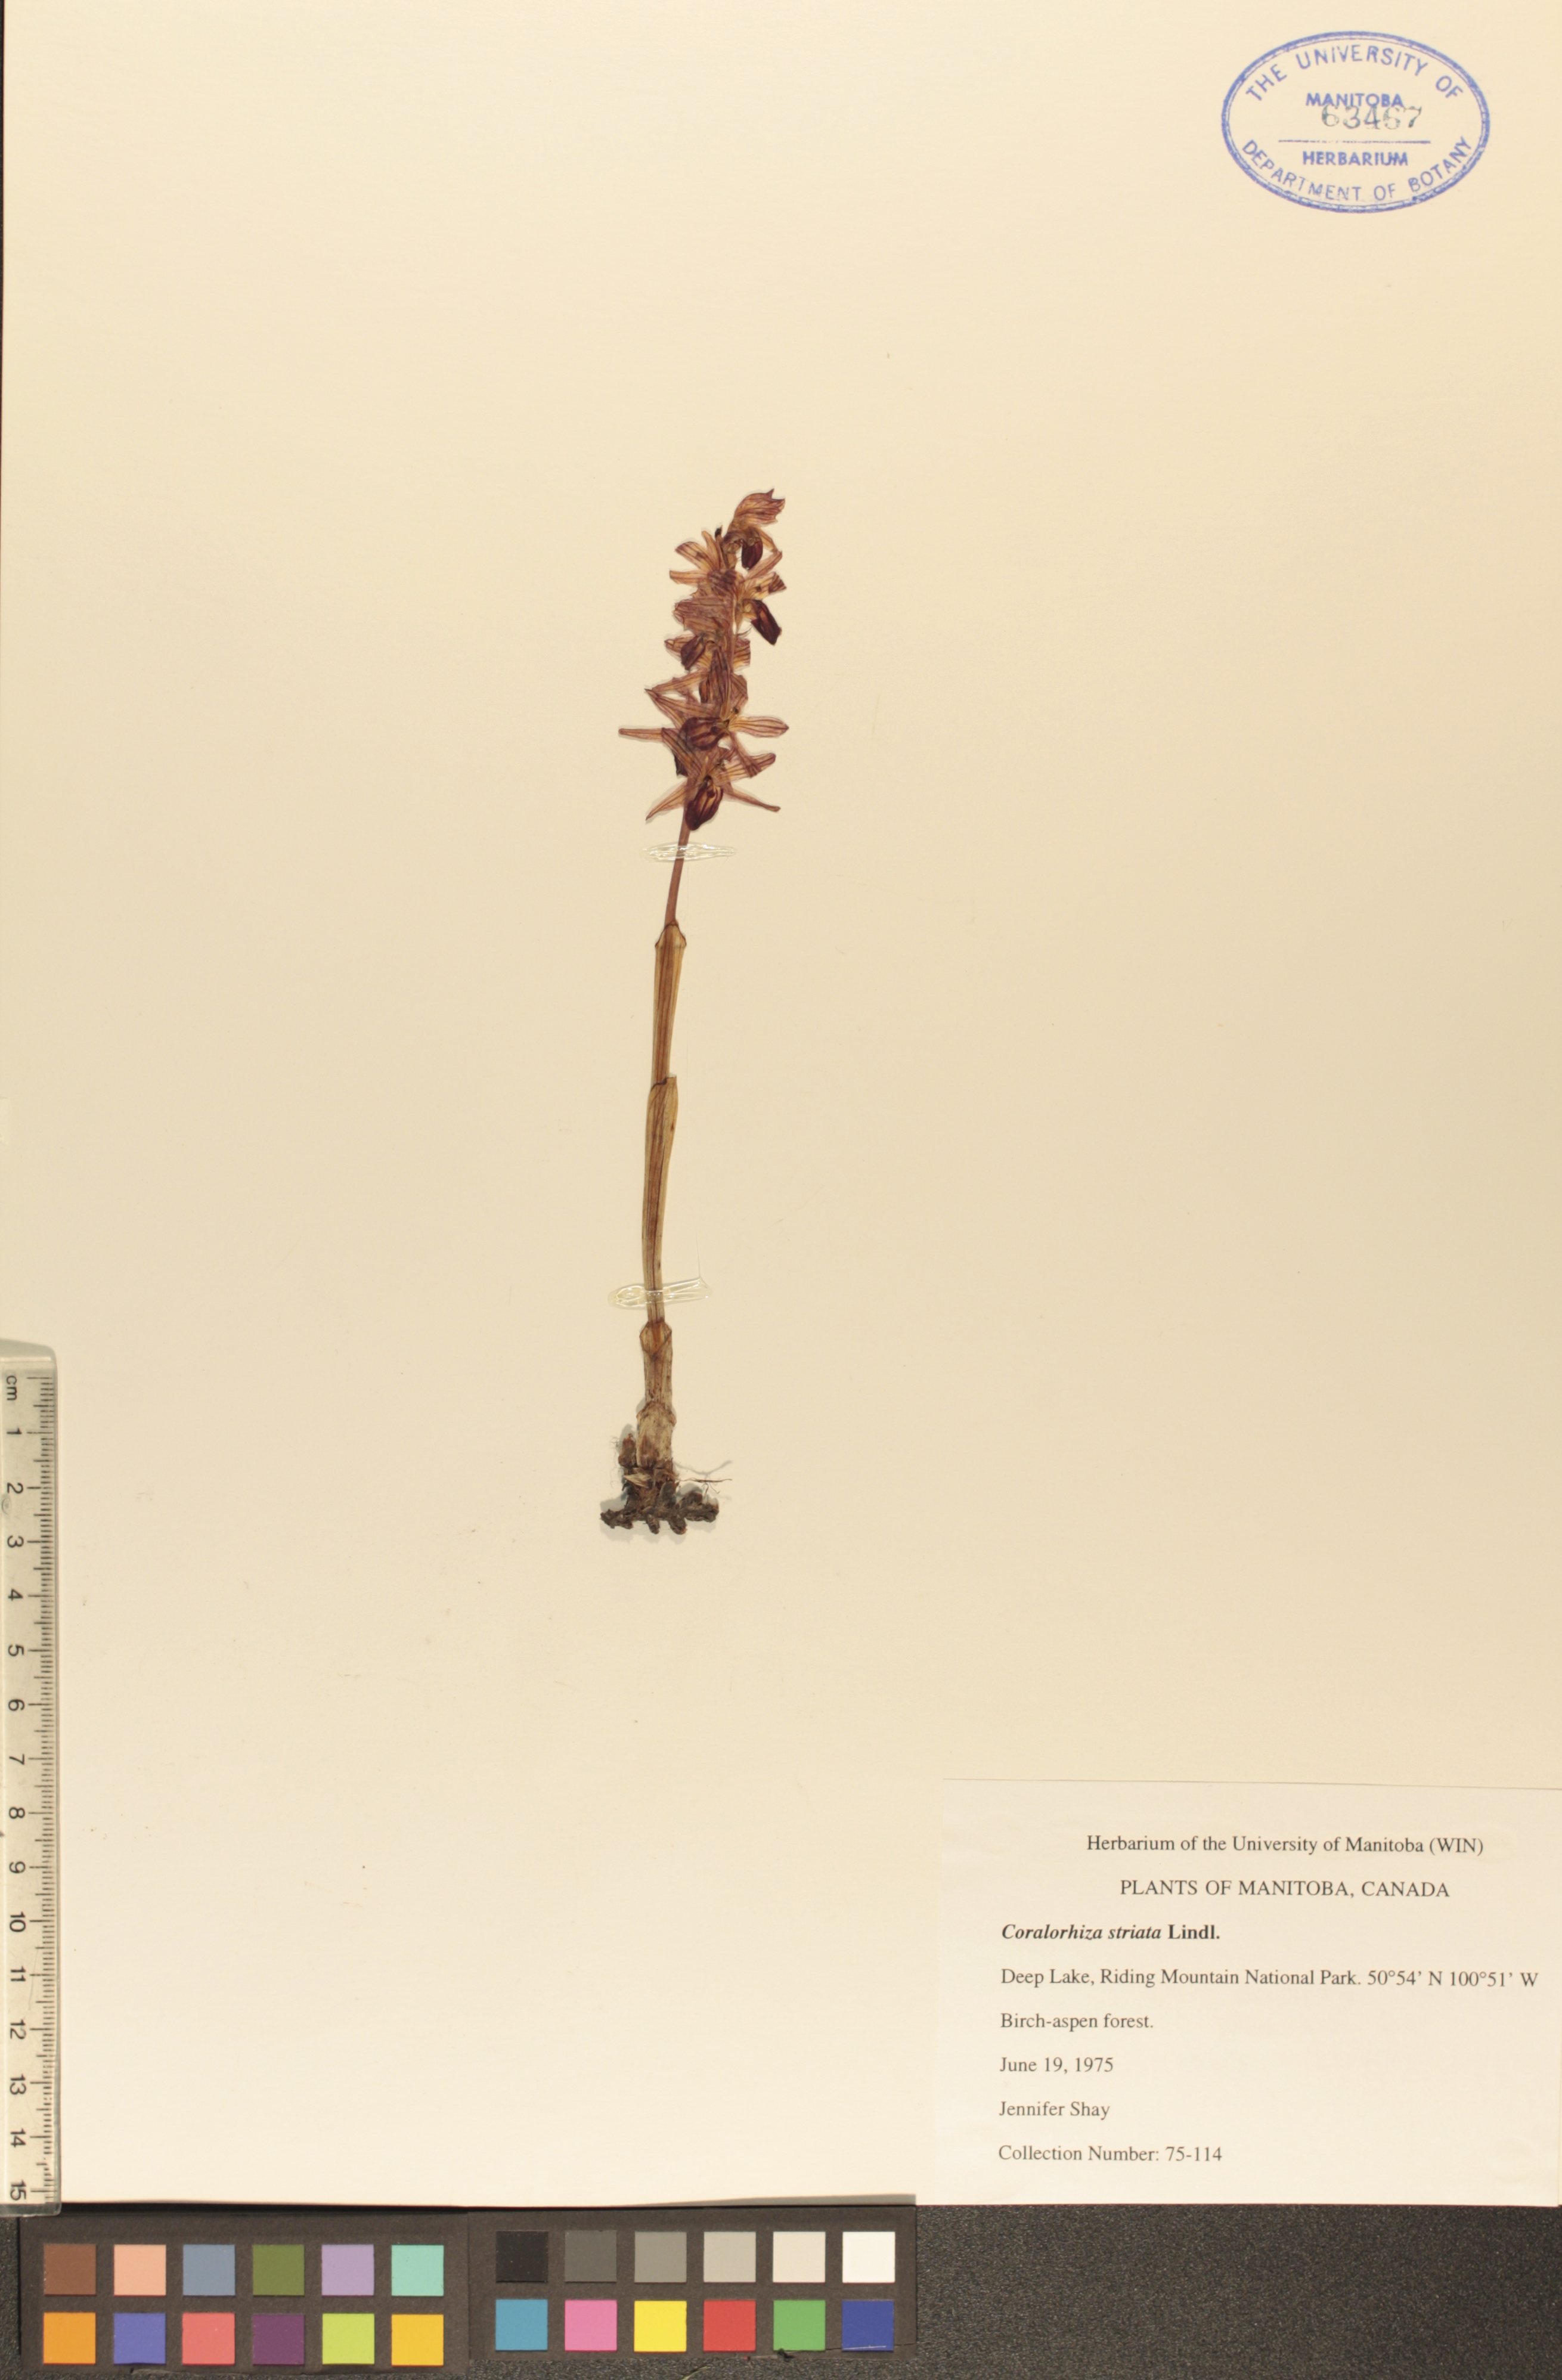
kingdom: Plantae
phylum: Tracheophyta
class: Liliopsida
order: Asparagales
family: Orchidaceae
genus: Corallorhiza
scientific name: Corallorhiza striata
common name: Hooded coralroot
